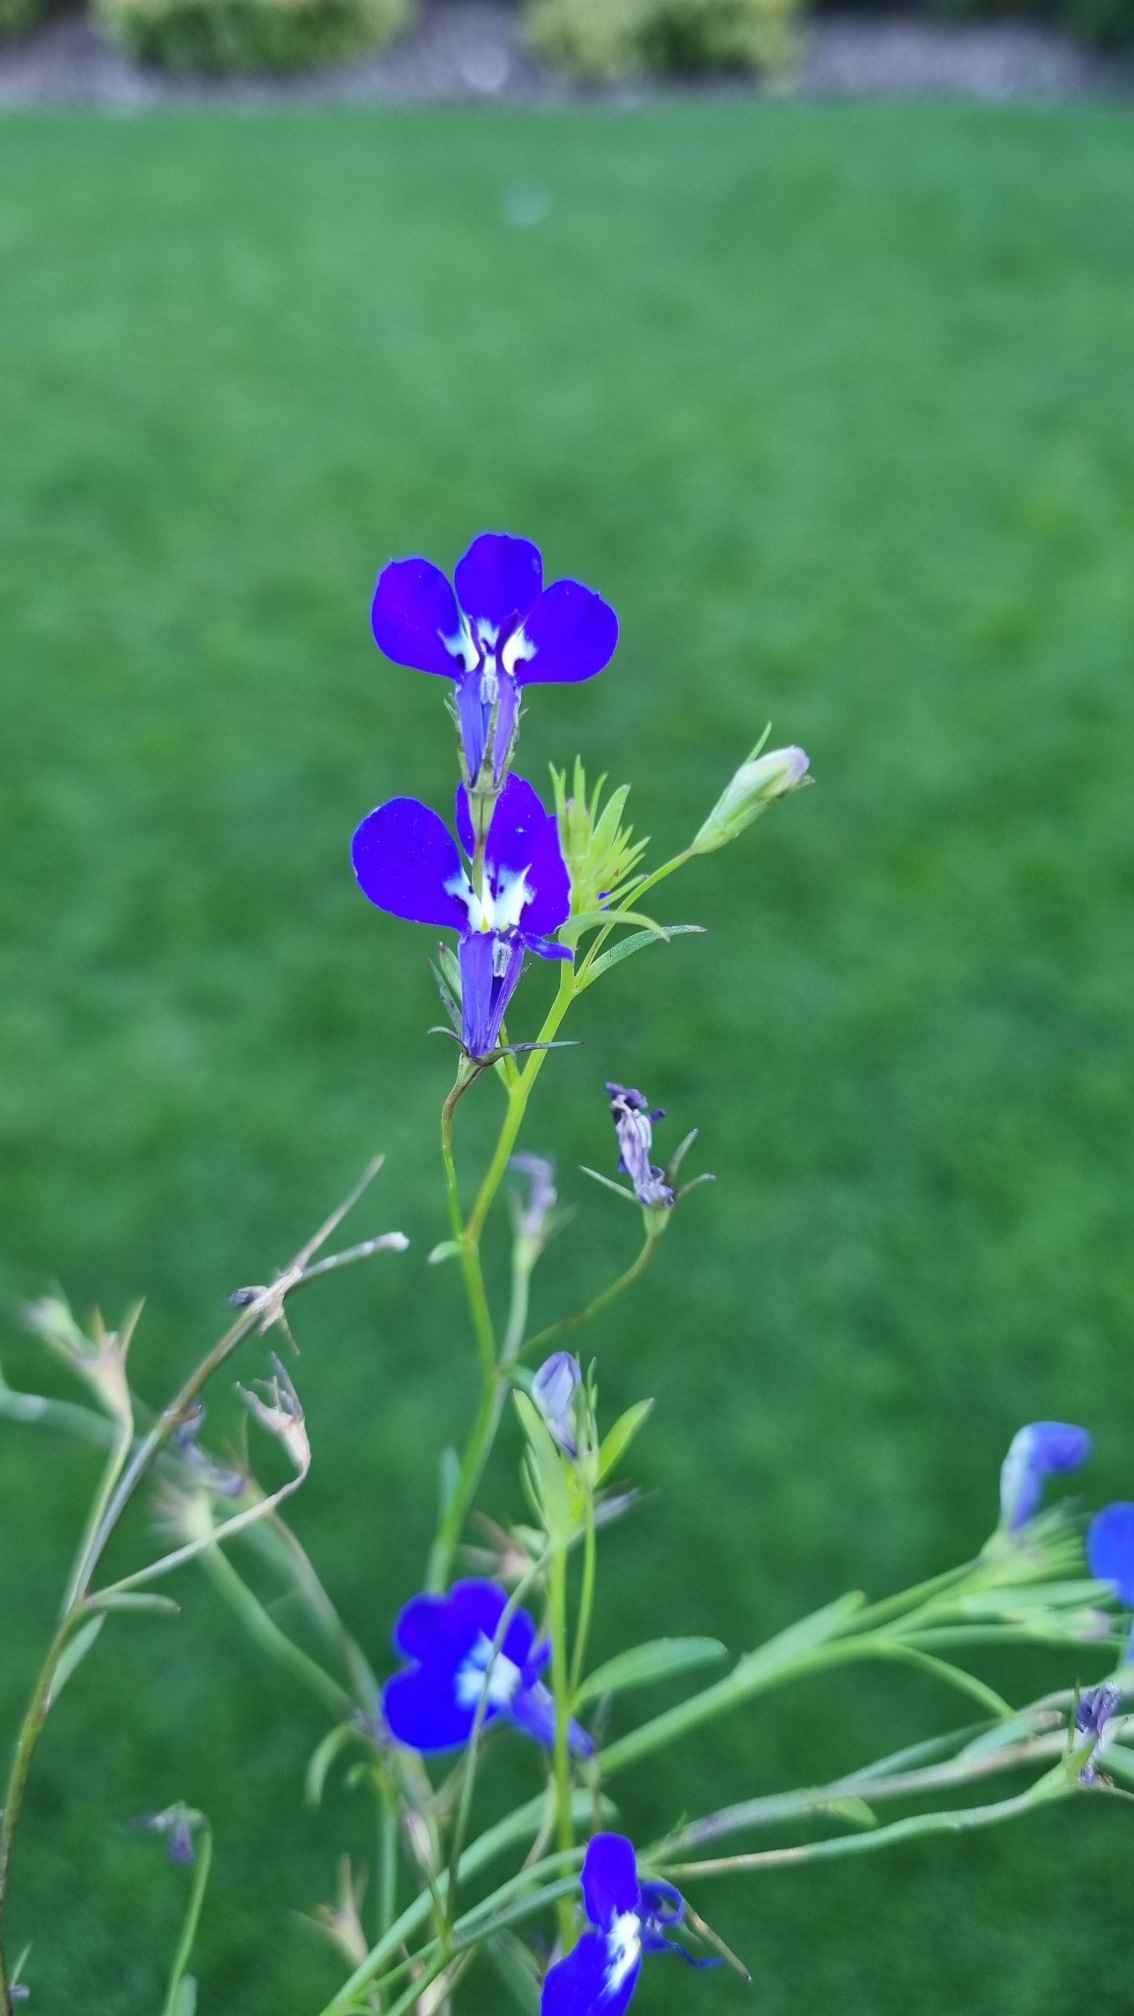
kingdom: Plantae
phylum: Tracheophyta
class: Magnoliopsida
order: Asterales
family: Campanulaceae
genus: Lobelia
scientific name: Lobelia erinus
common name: Kant-lobelie
